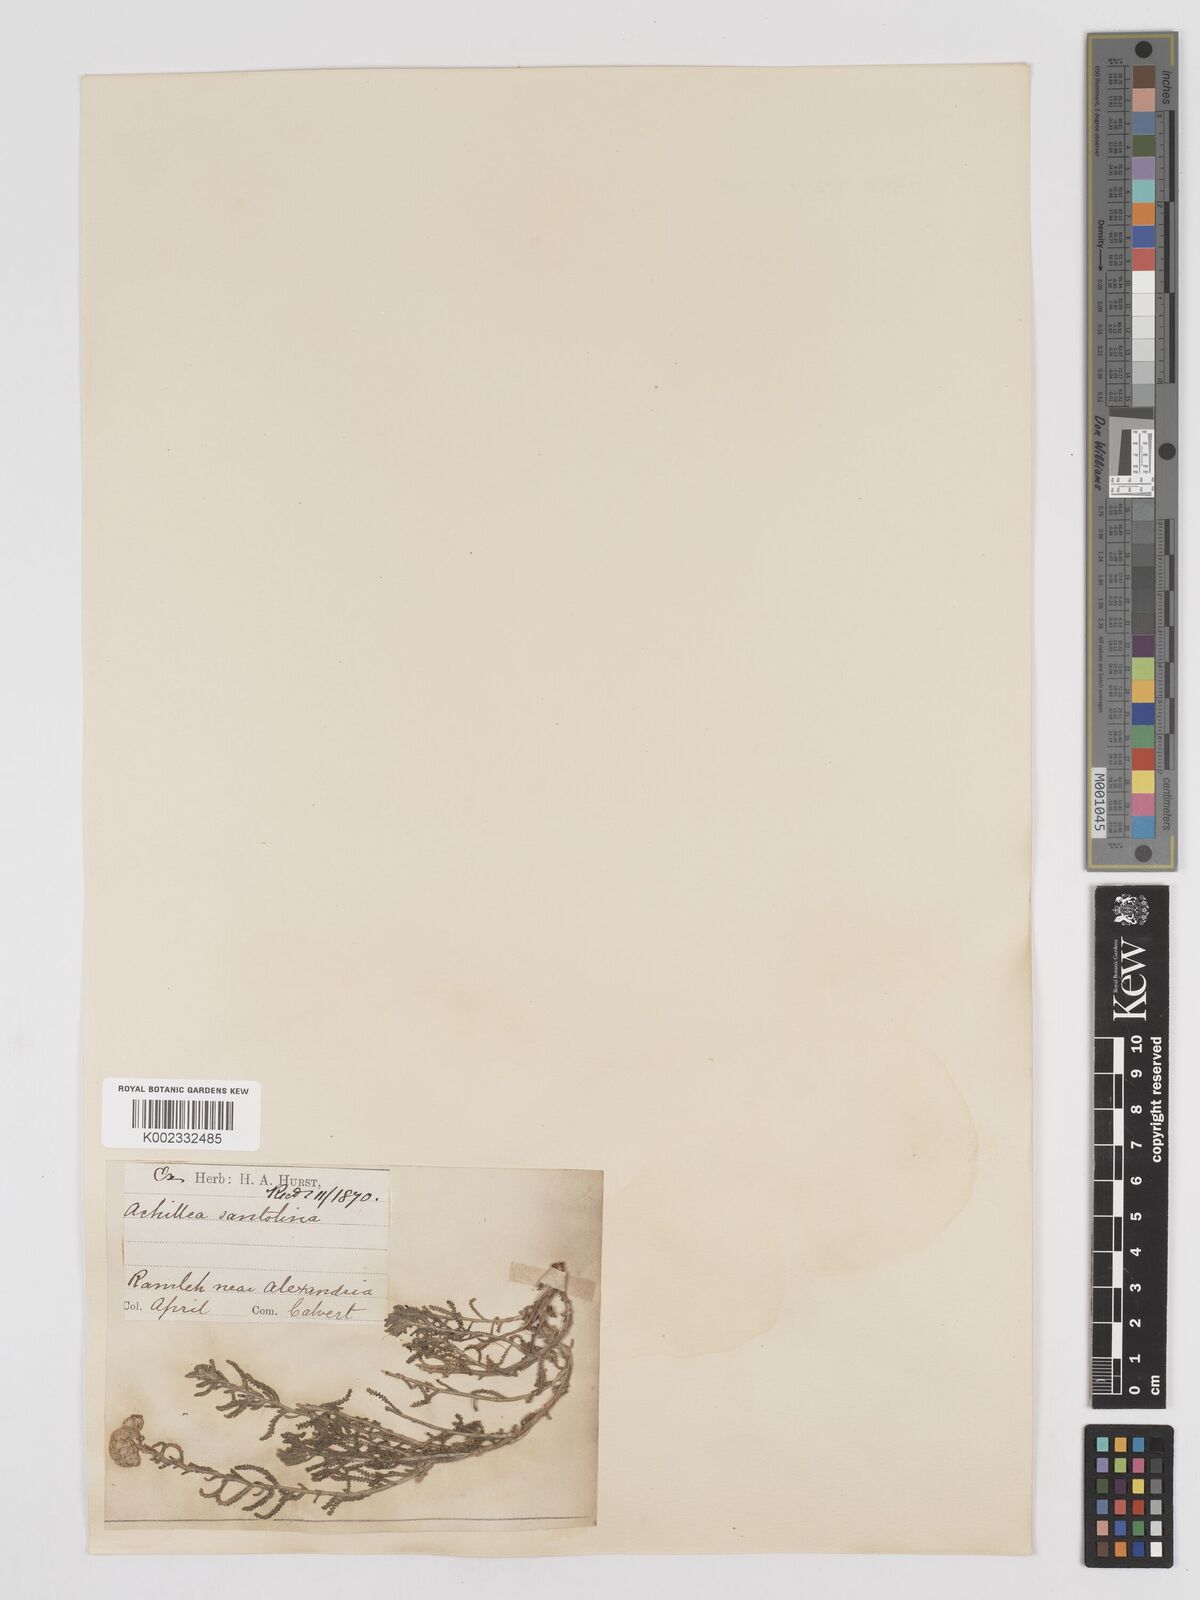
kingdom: Plantae
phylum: Tracheophyta
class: Magnoliopsida
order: Asterales
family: Asteraceae
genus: Achillea
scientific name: Achillea tenuifolia
